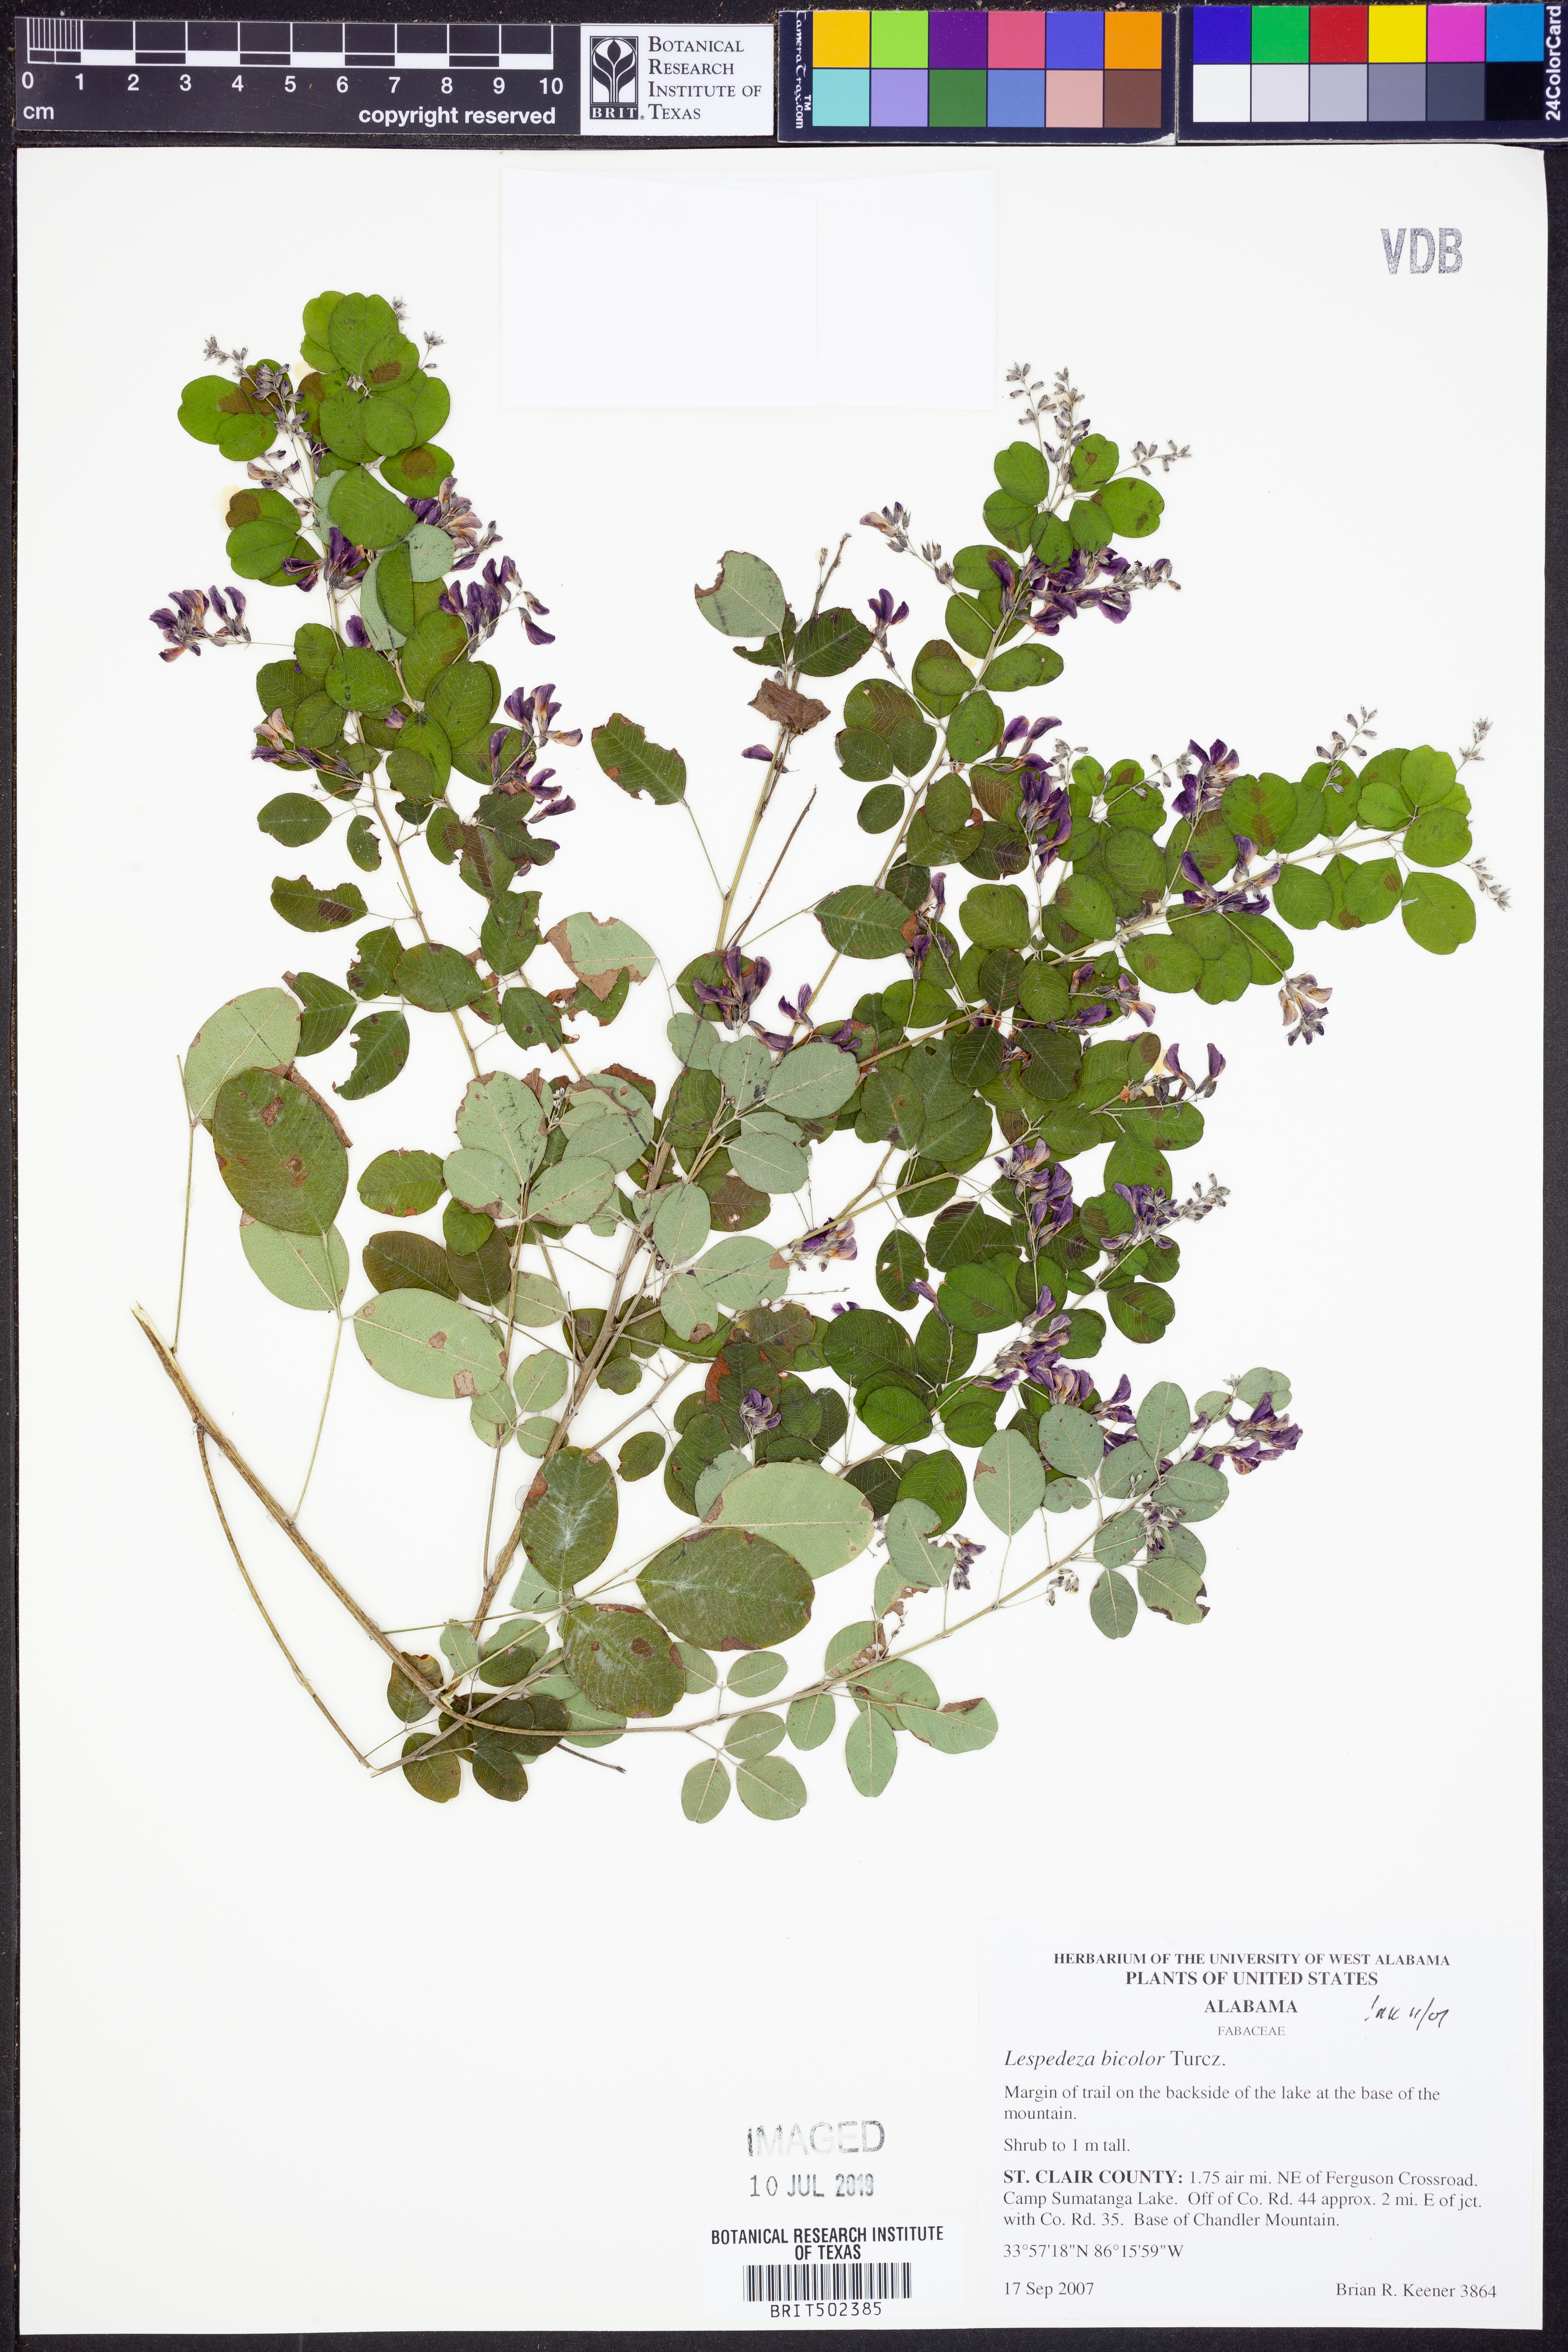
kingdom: Plantae
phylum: Tracheophyta
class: Magnoliopsida
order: Fabales
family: Fabaceae
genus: Lespedeza
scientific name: Lespedeza bicolor
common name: Shrub lespedeza
